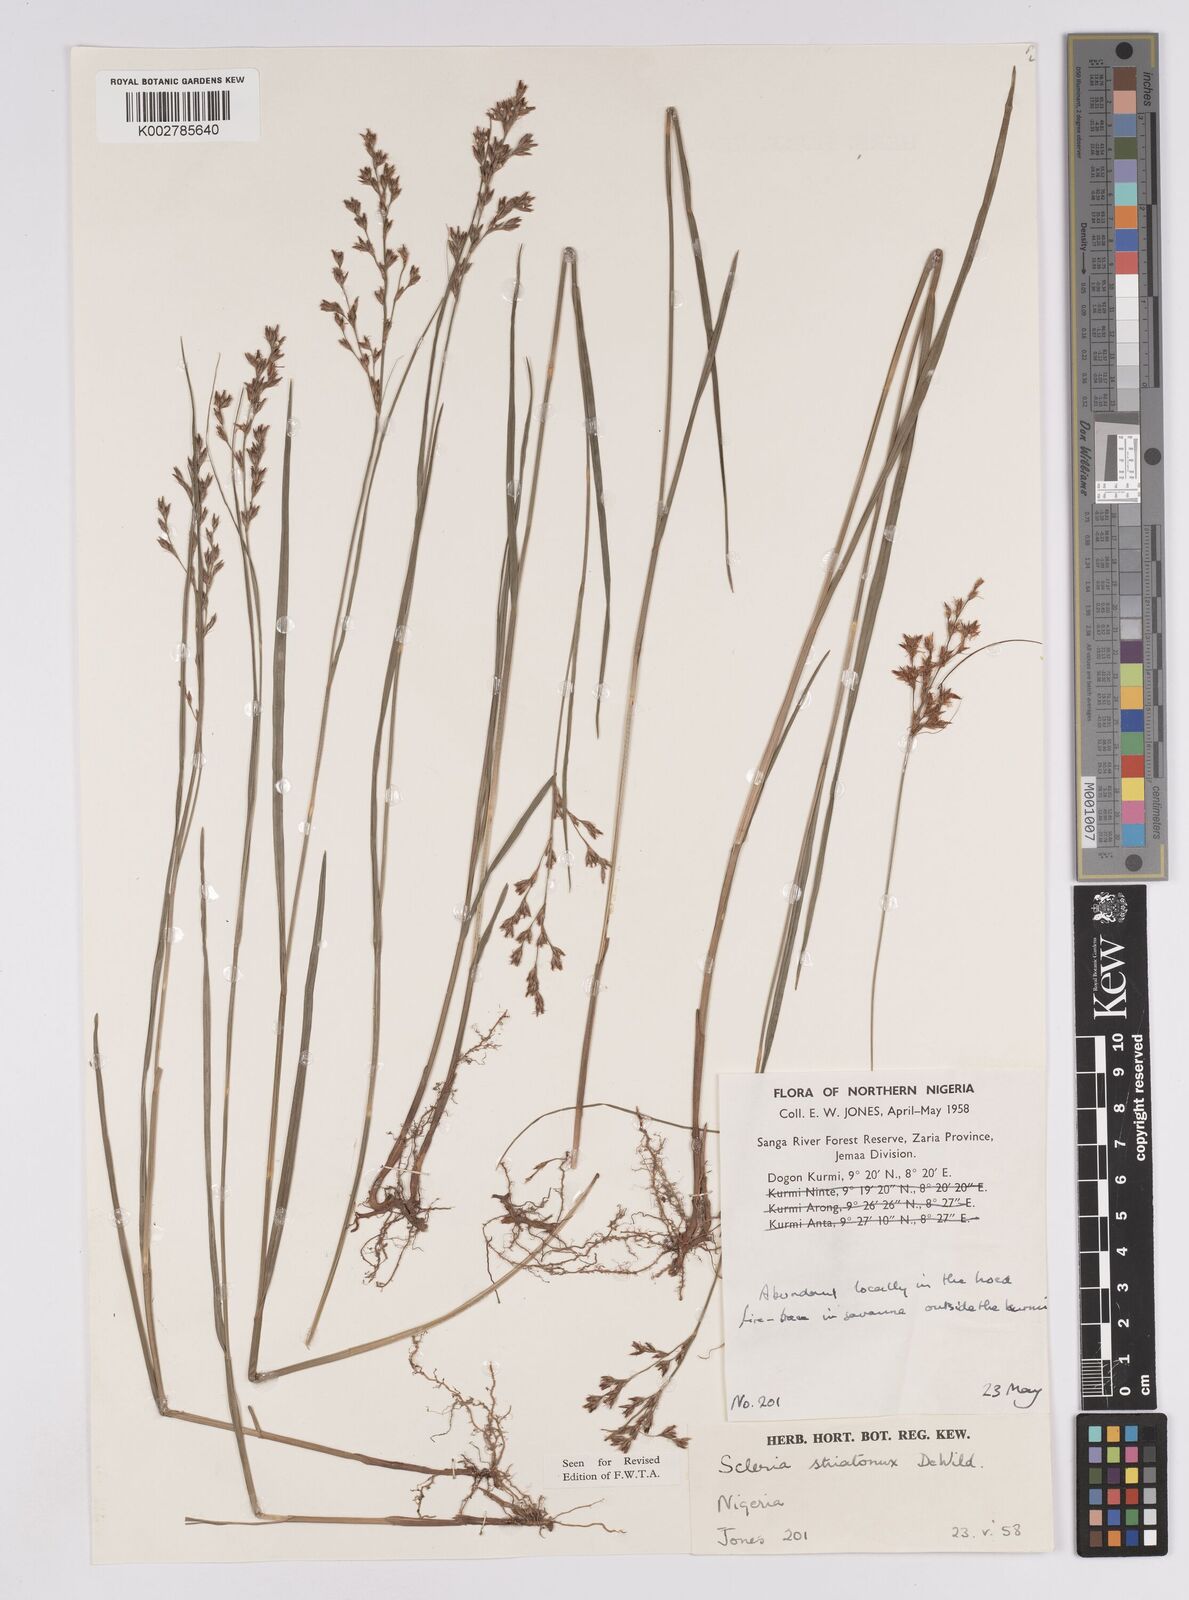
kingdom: Plantae
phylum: Tracheophyta
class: Liliopsida
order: Poales
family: Cyperaceae
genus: Scleria
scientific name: Scleria woodii
